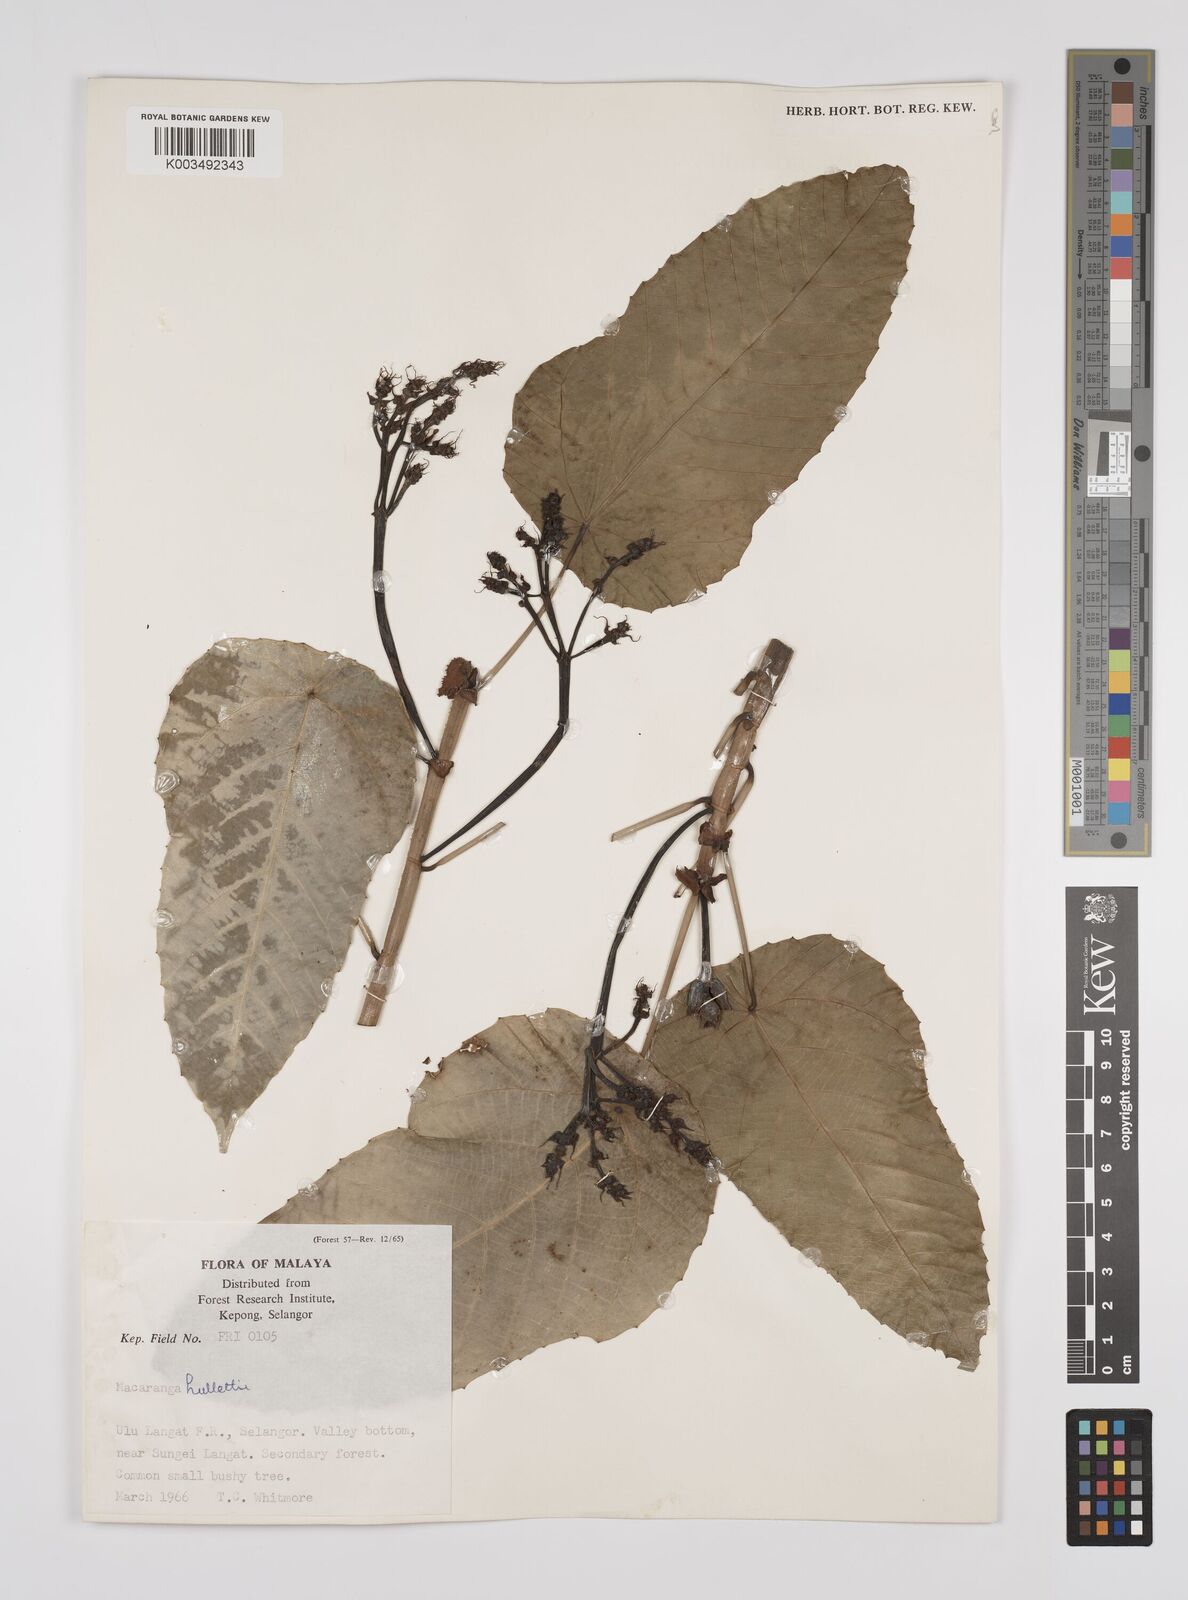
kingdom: Plantae
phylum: Tracheophyta
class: Magnoliopsida
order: Malpighiales
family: Euphorbiaceae
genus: Macaranga
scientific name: Macaranga hullettii
